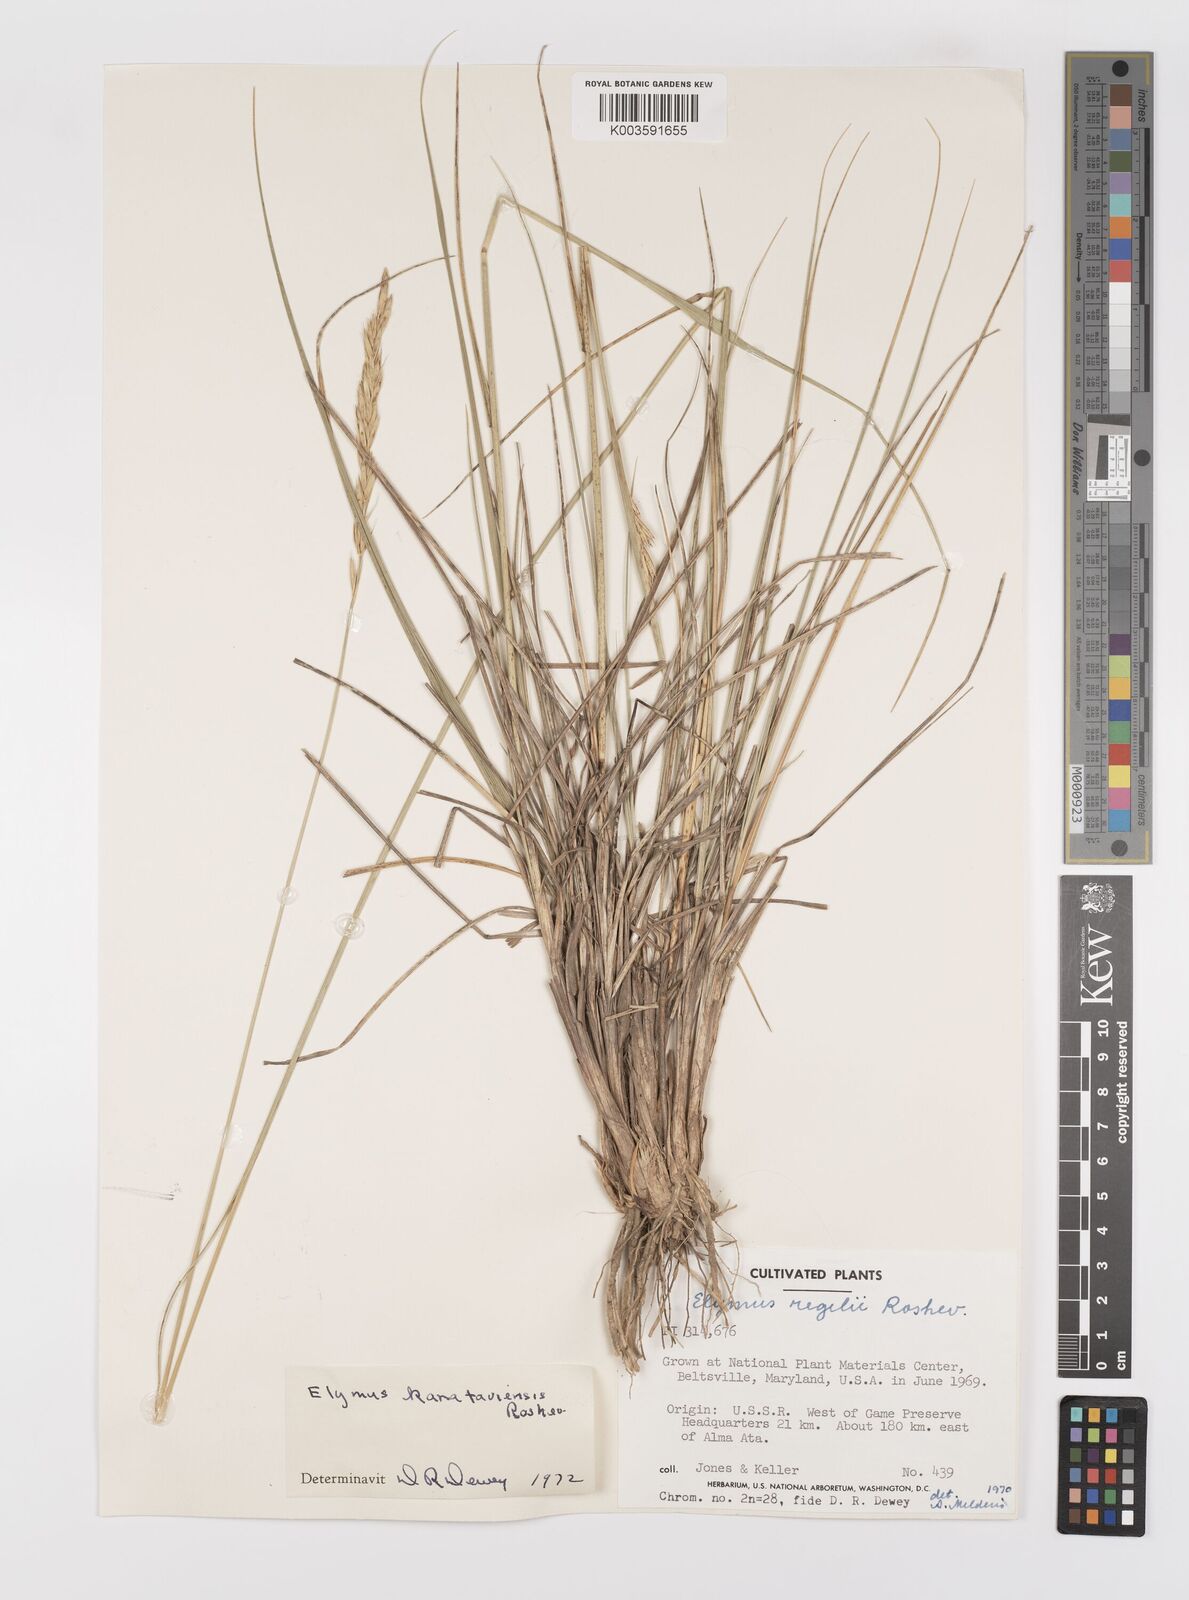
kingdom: Plantae
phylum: Tracheophyta
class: Liliopsida
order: Poales
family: Poaceae
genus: Leymus
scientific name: Leymus alaicus
